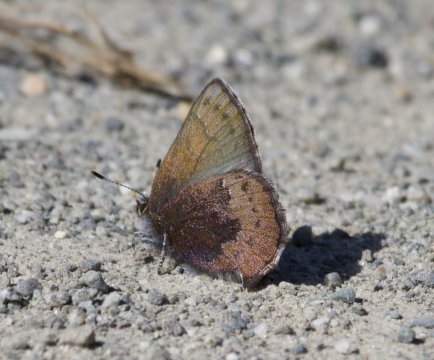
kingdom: Animalia
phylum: Arthropoda
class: Insecta
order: Lepidoptera
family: Lycaenidae
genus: Incisalia
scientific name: Incisalia irioides
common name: Brown Elfin
